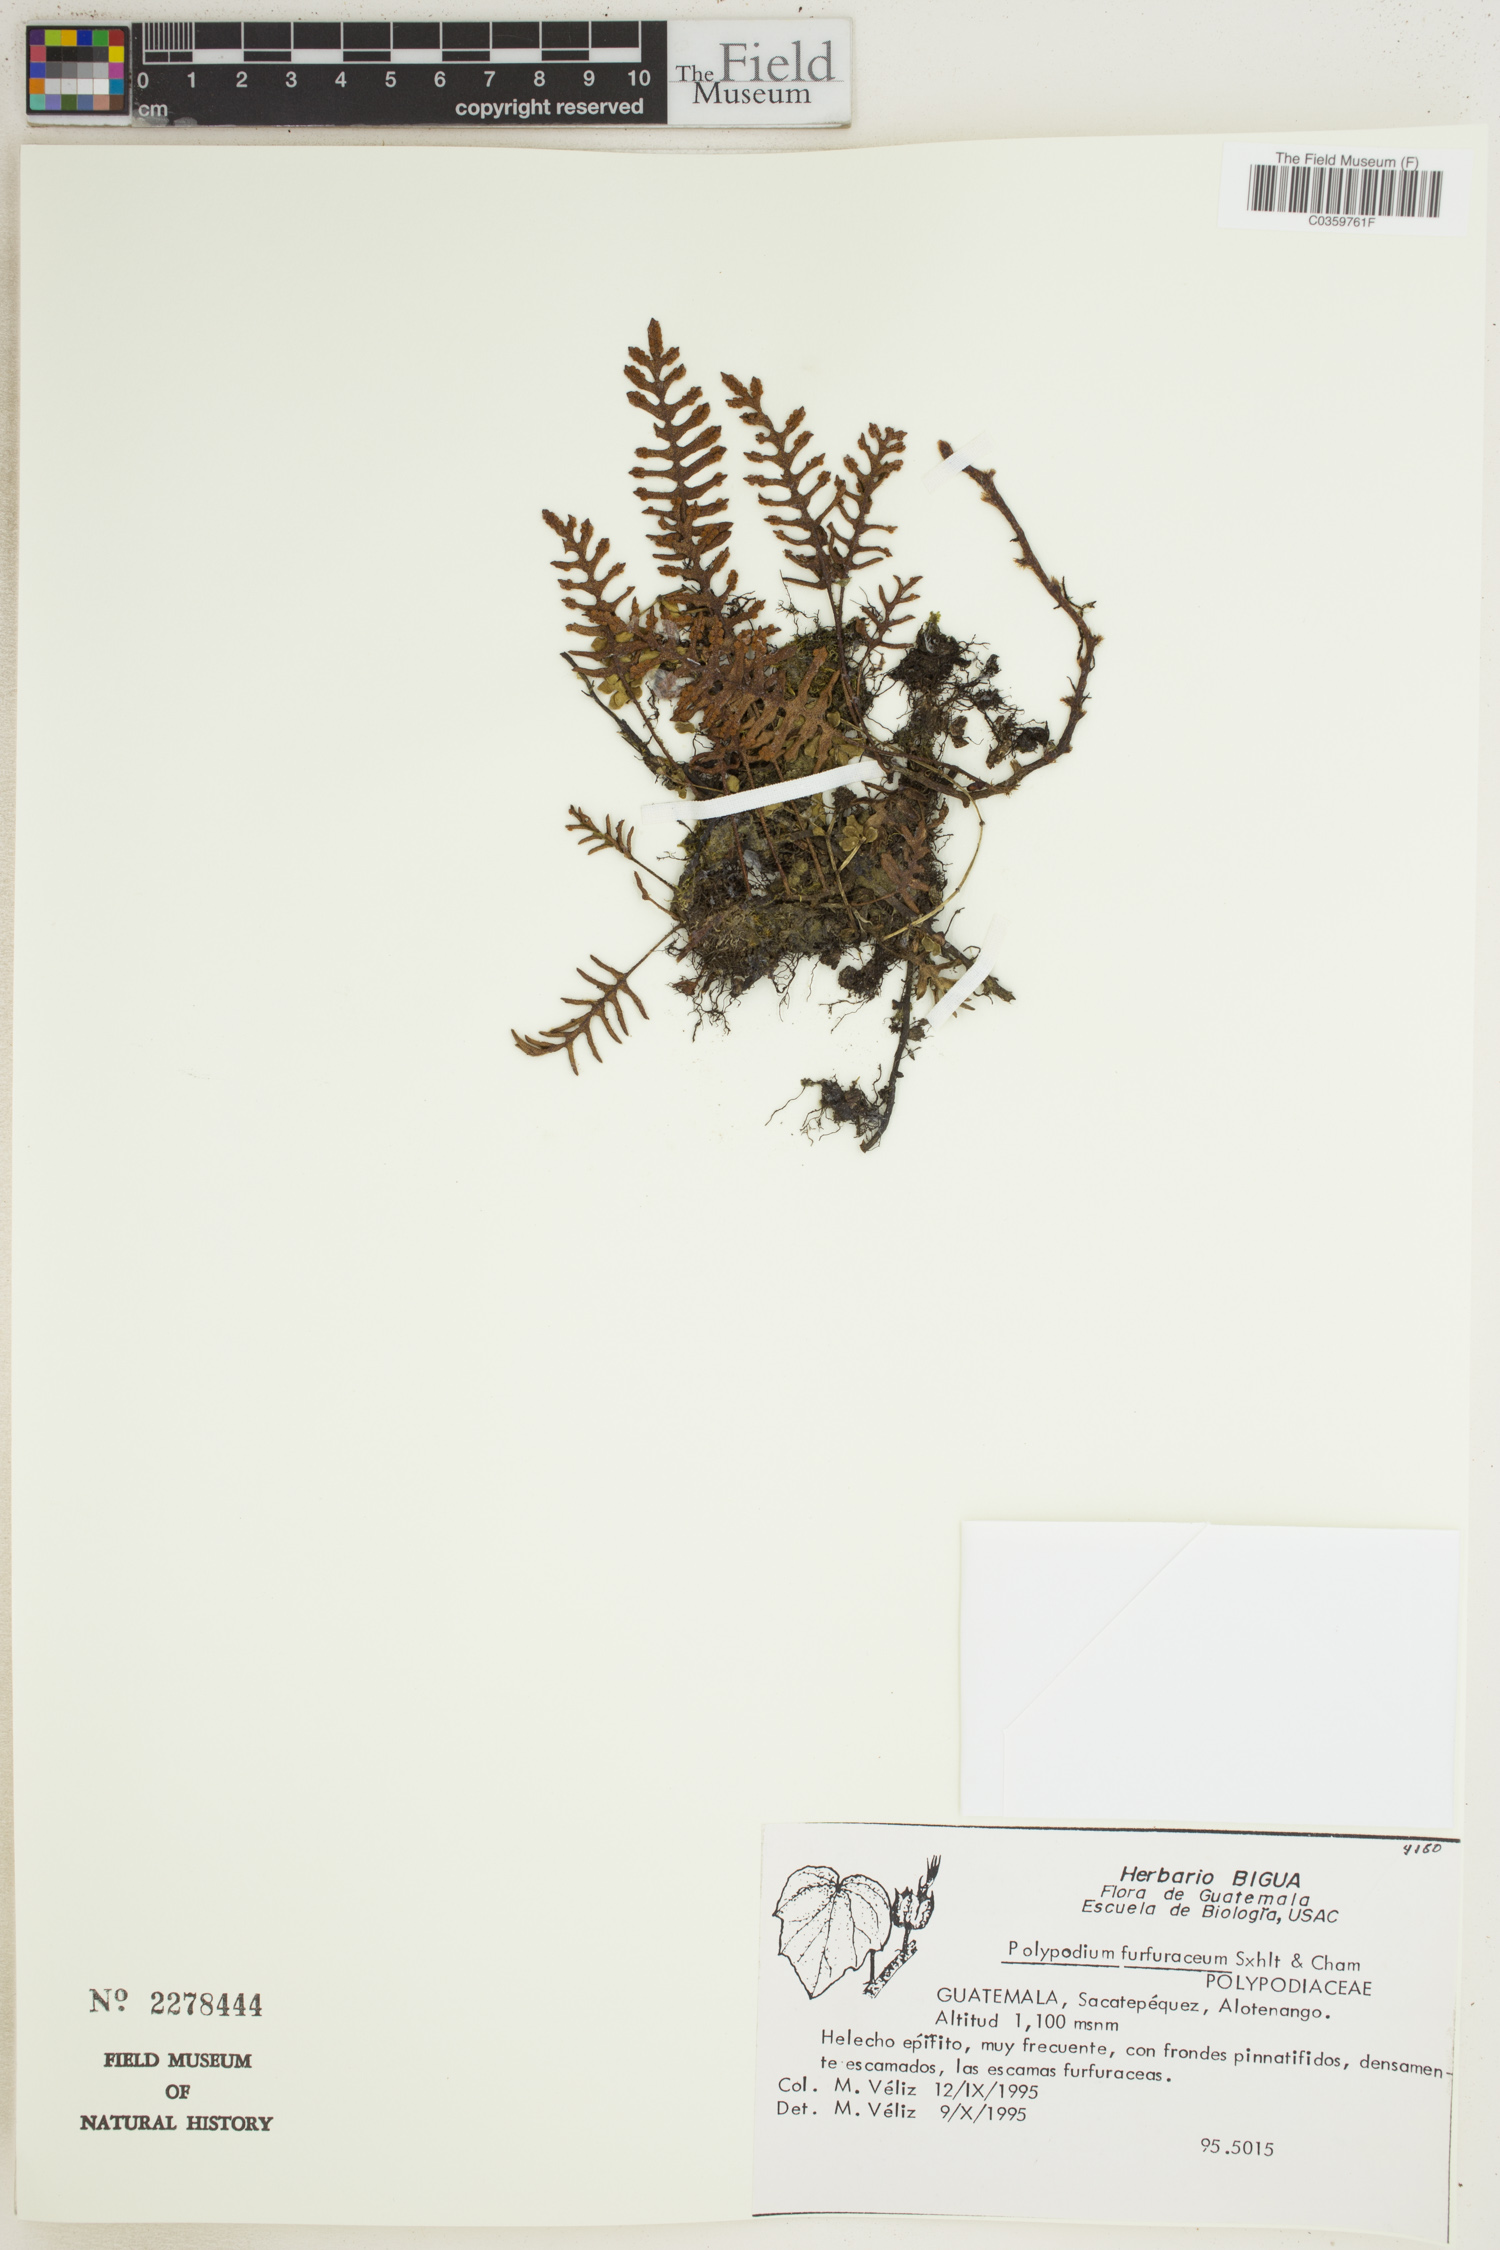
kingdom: Plantae
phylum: Tracheophyta
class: Polypodiopsida
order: Polypodiales
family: Polypodiaceae
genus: Pleopeltis
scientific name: Pleopeltis furfuracea
